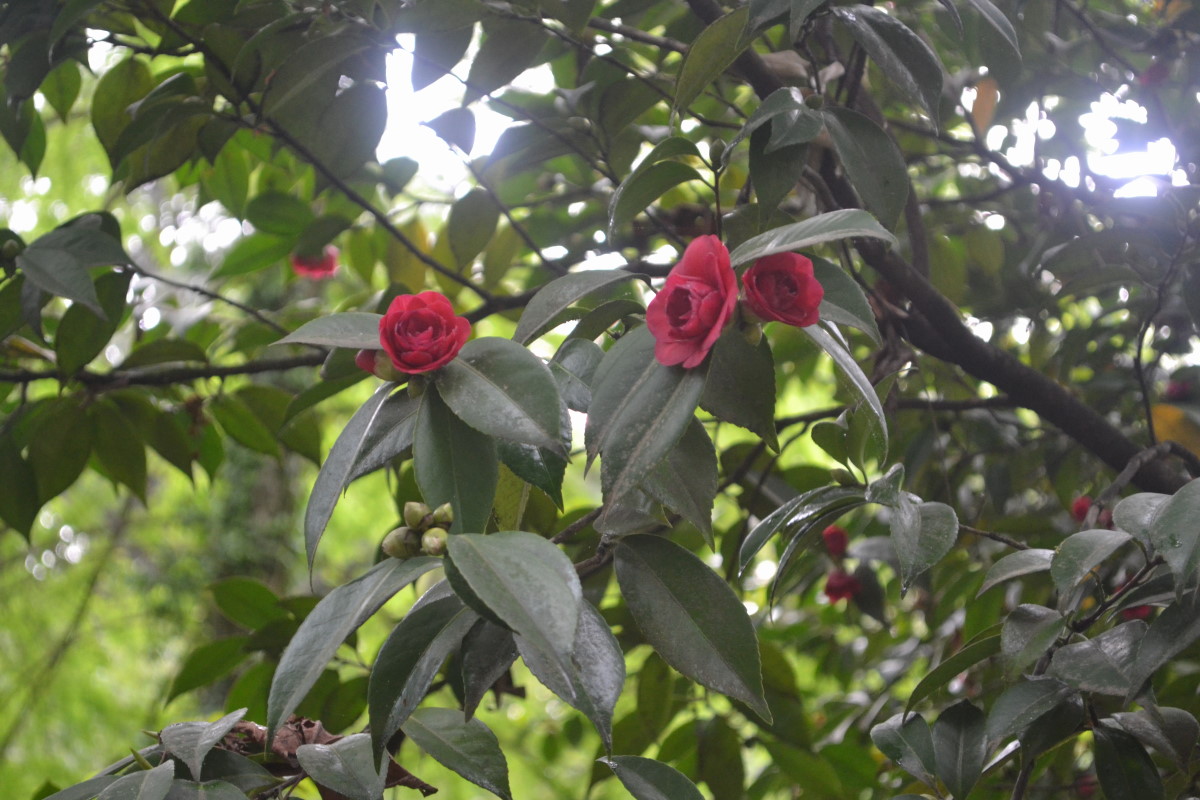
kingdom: Plantae
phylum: Tracheophyta
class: Magnoliopsida
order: Ericales
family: Theaceae
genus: Camellia
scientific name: Camellia japonica
